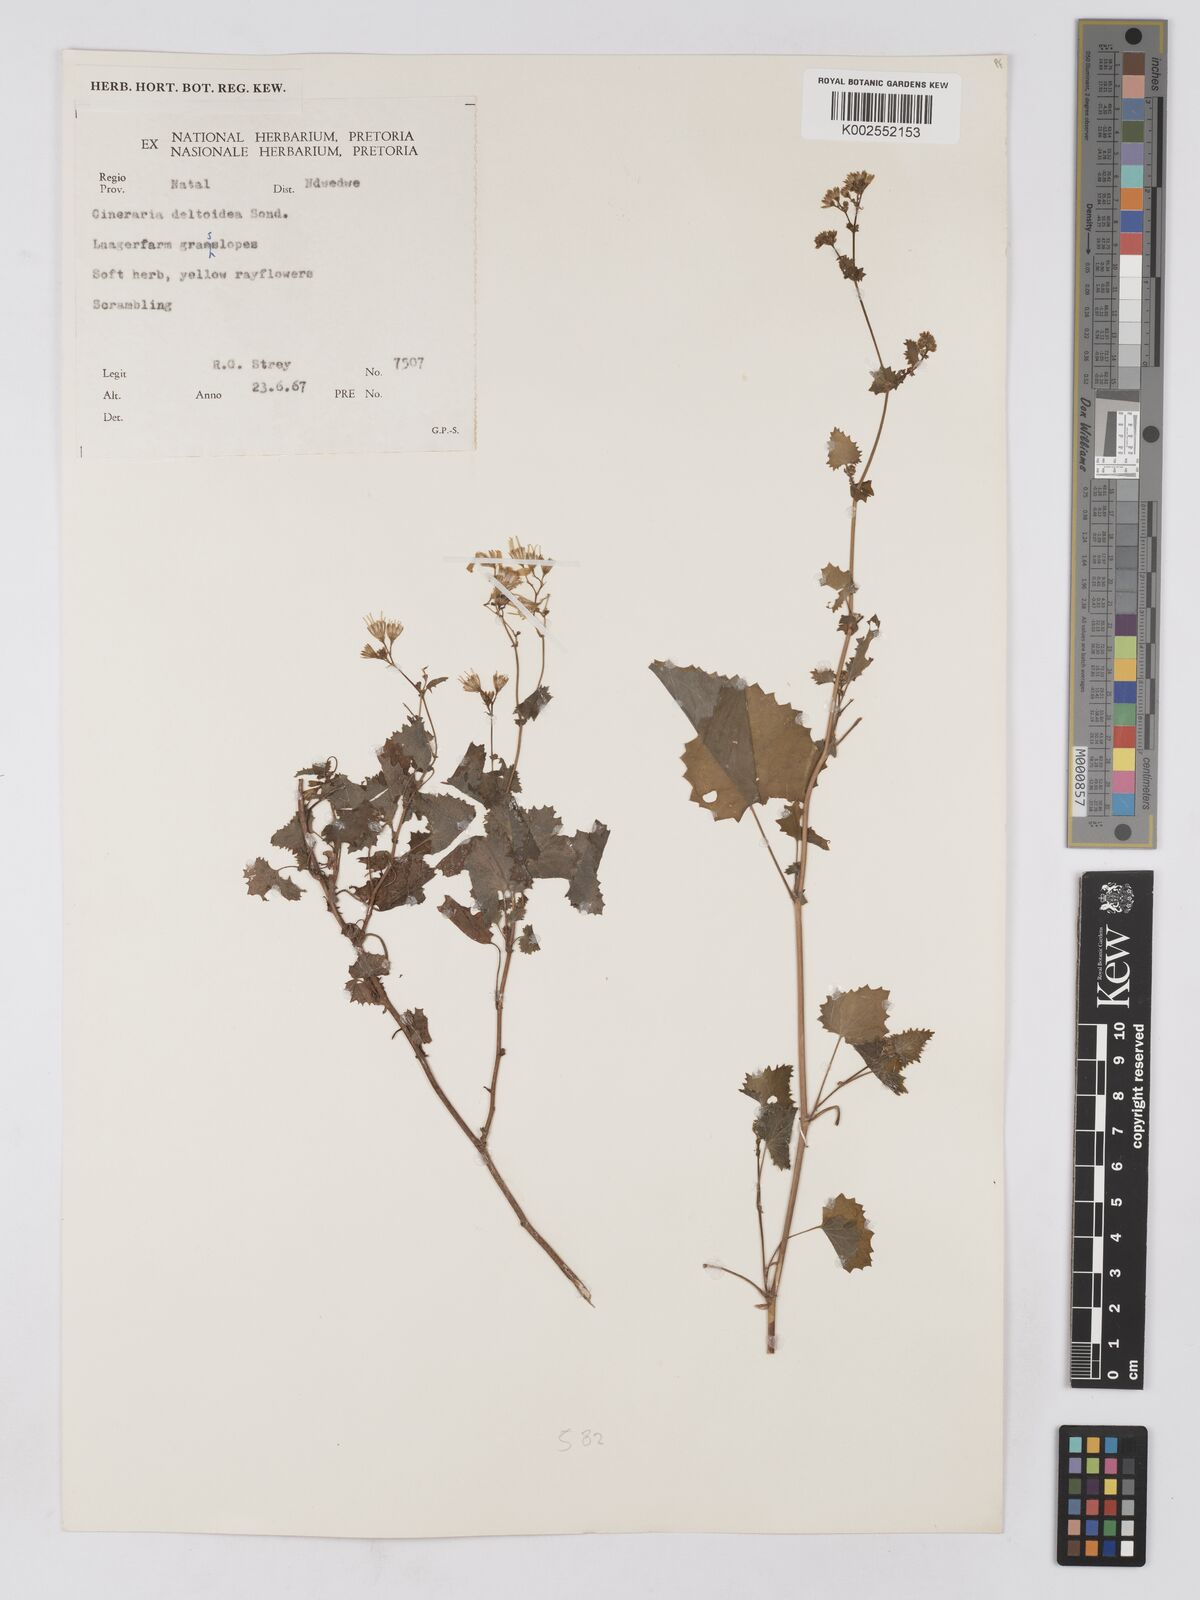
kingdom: Plantae
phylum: Tracheophyta
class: Magnoliopsida
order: Asterales
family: Asteraceae
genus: Cineraria
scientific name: Cineraria deltoidea
